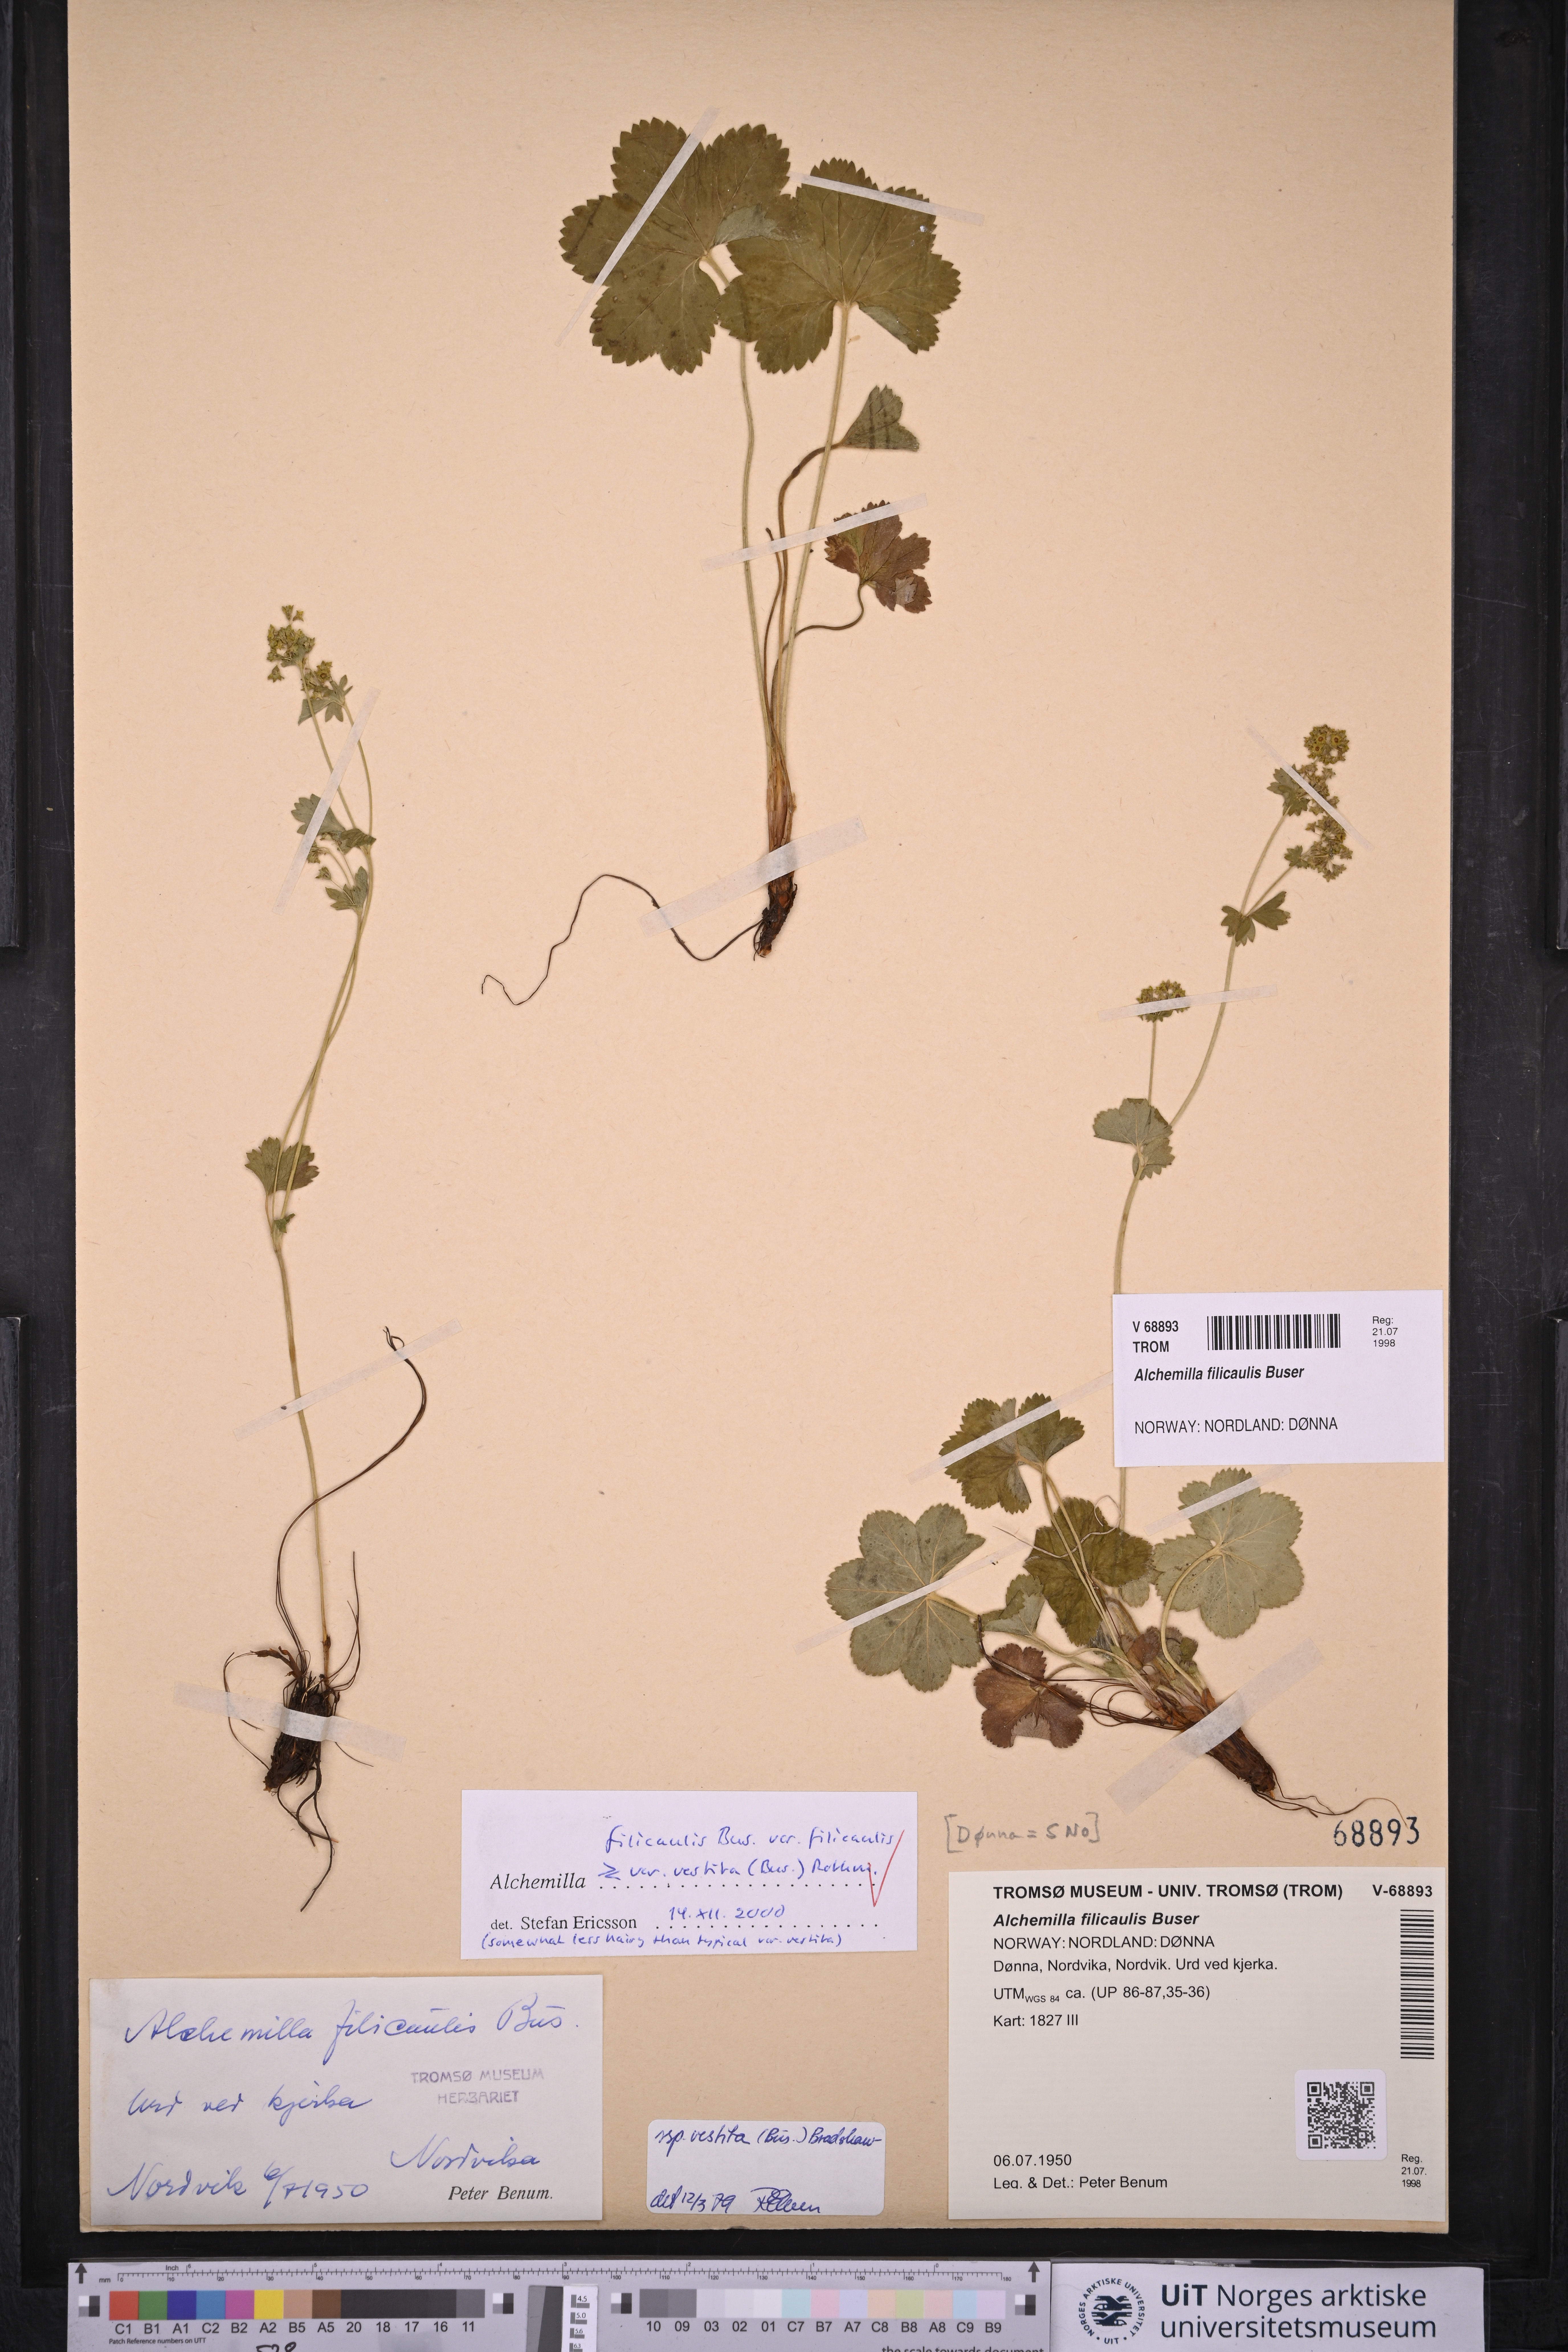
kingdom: Plantae
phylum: Tracheophyta
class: Magnoliopsida
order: Rosales
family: Rosaceae
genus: Alchemilla
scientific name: Alchemilla filicaulis
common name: Hairy lady's-mantle
